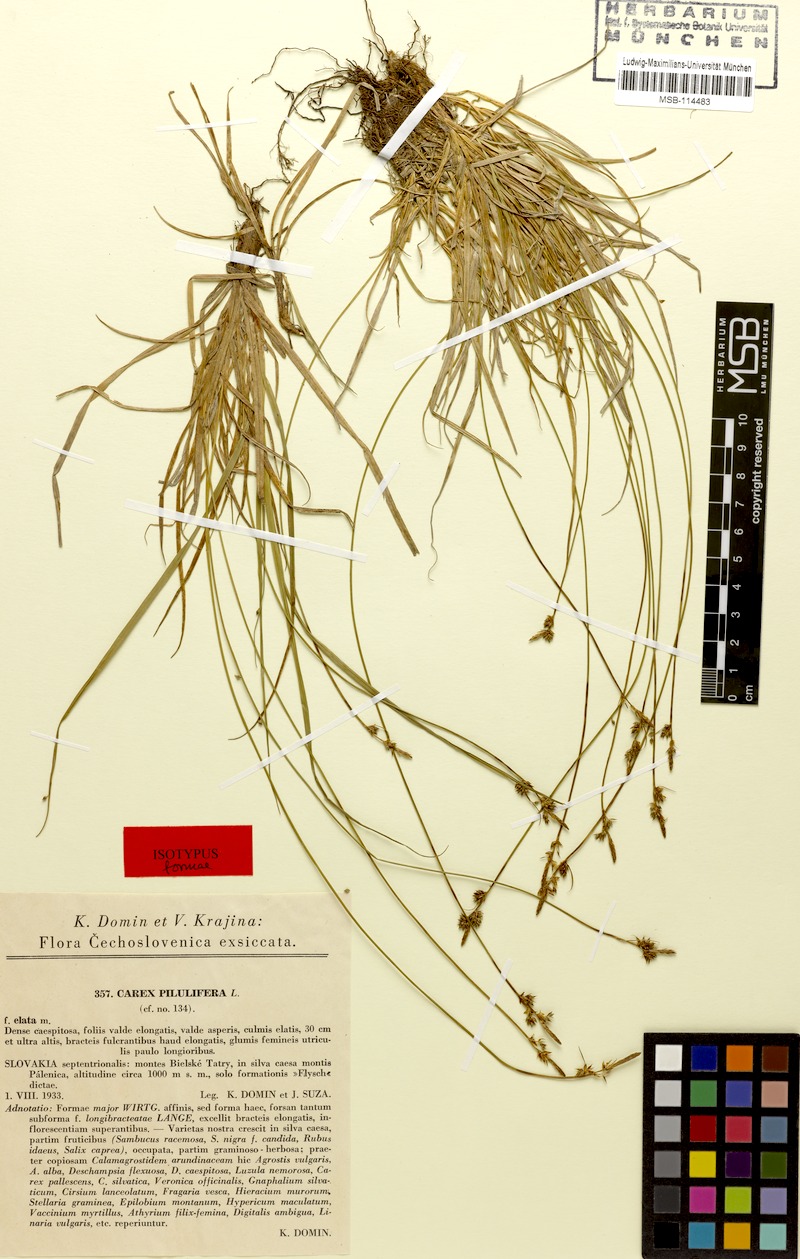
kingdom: Plantae
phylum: Tracheophyta
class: Liliopsida
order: Poales
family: Cyperaceae
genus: Carex
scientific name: Carex pilulifera
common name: Pill sedge
